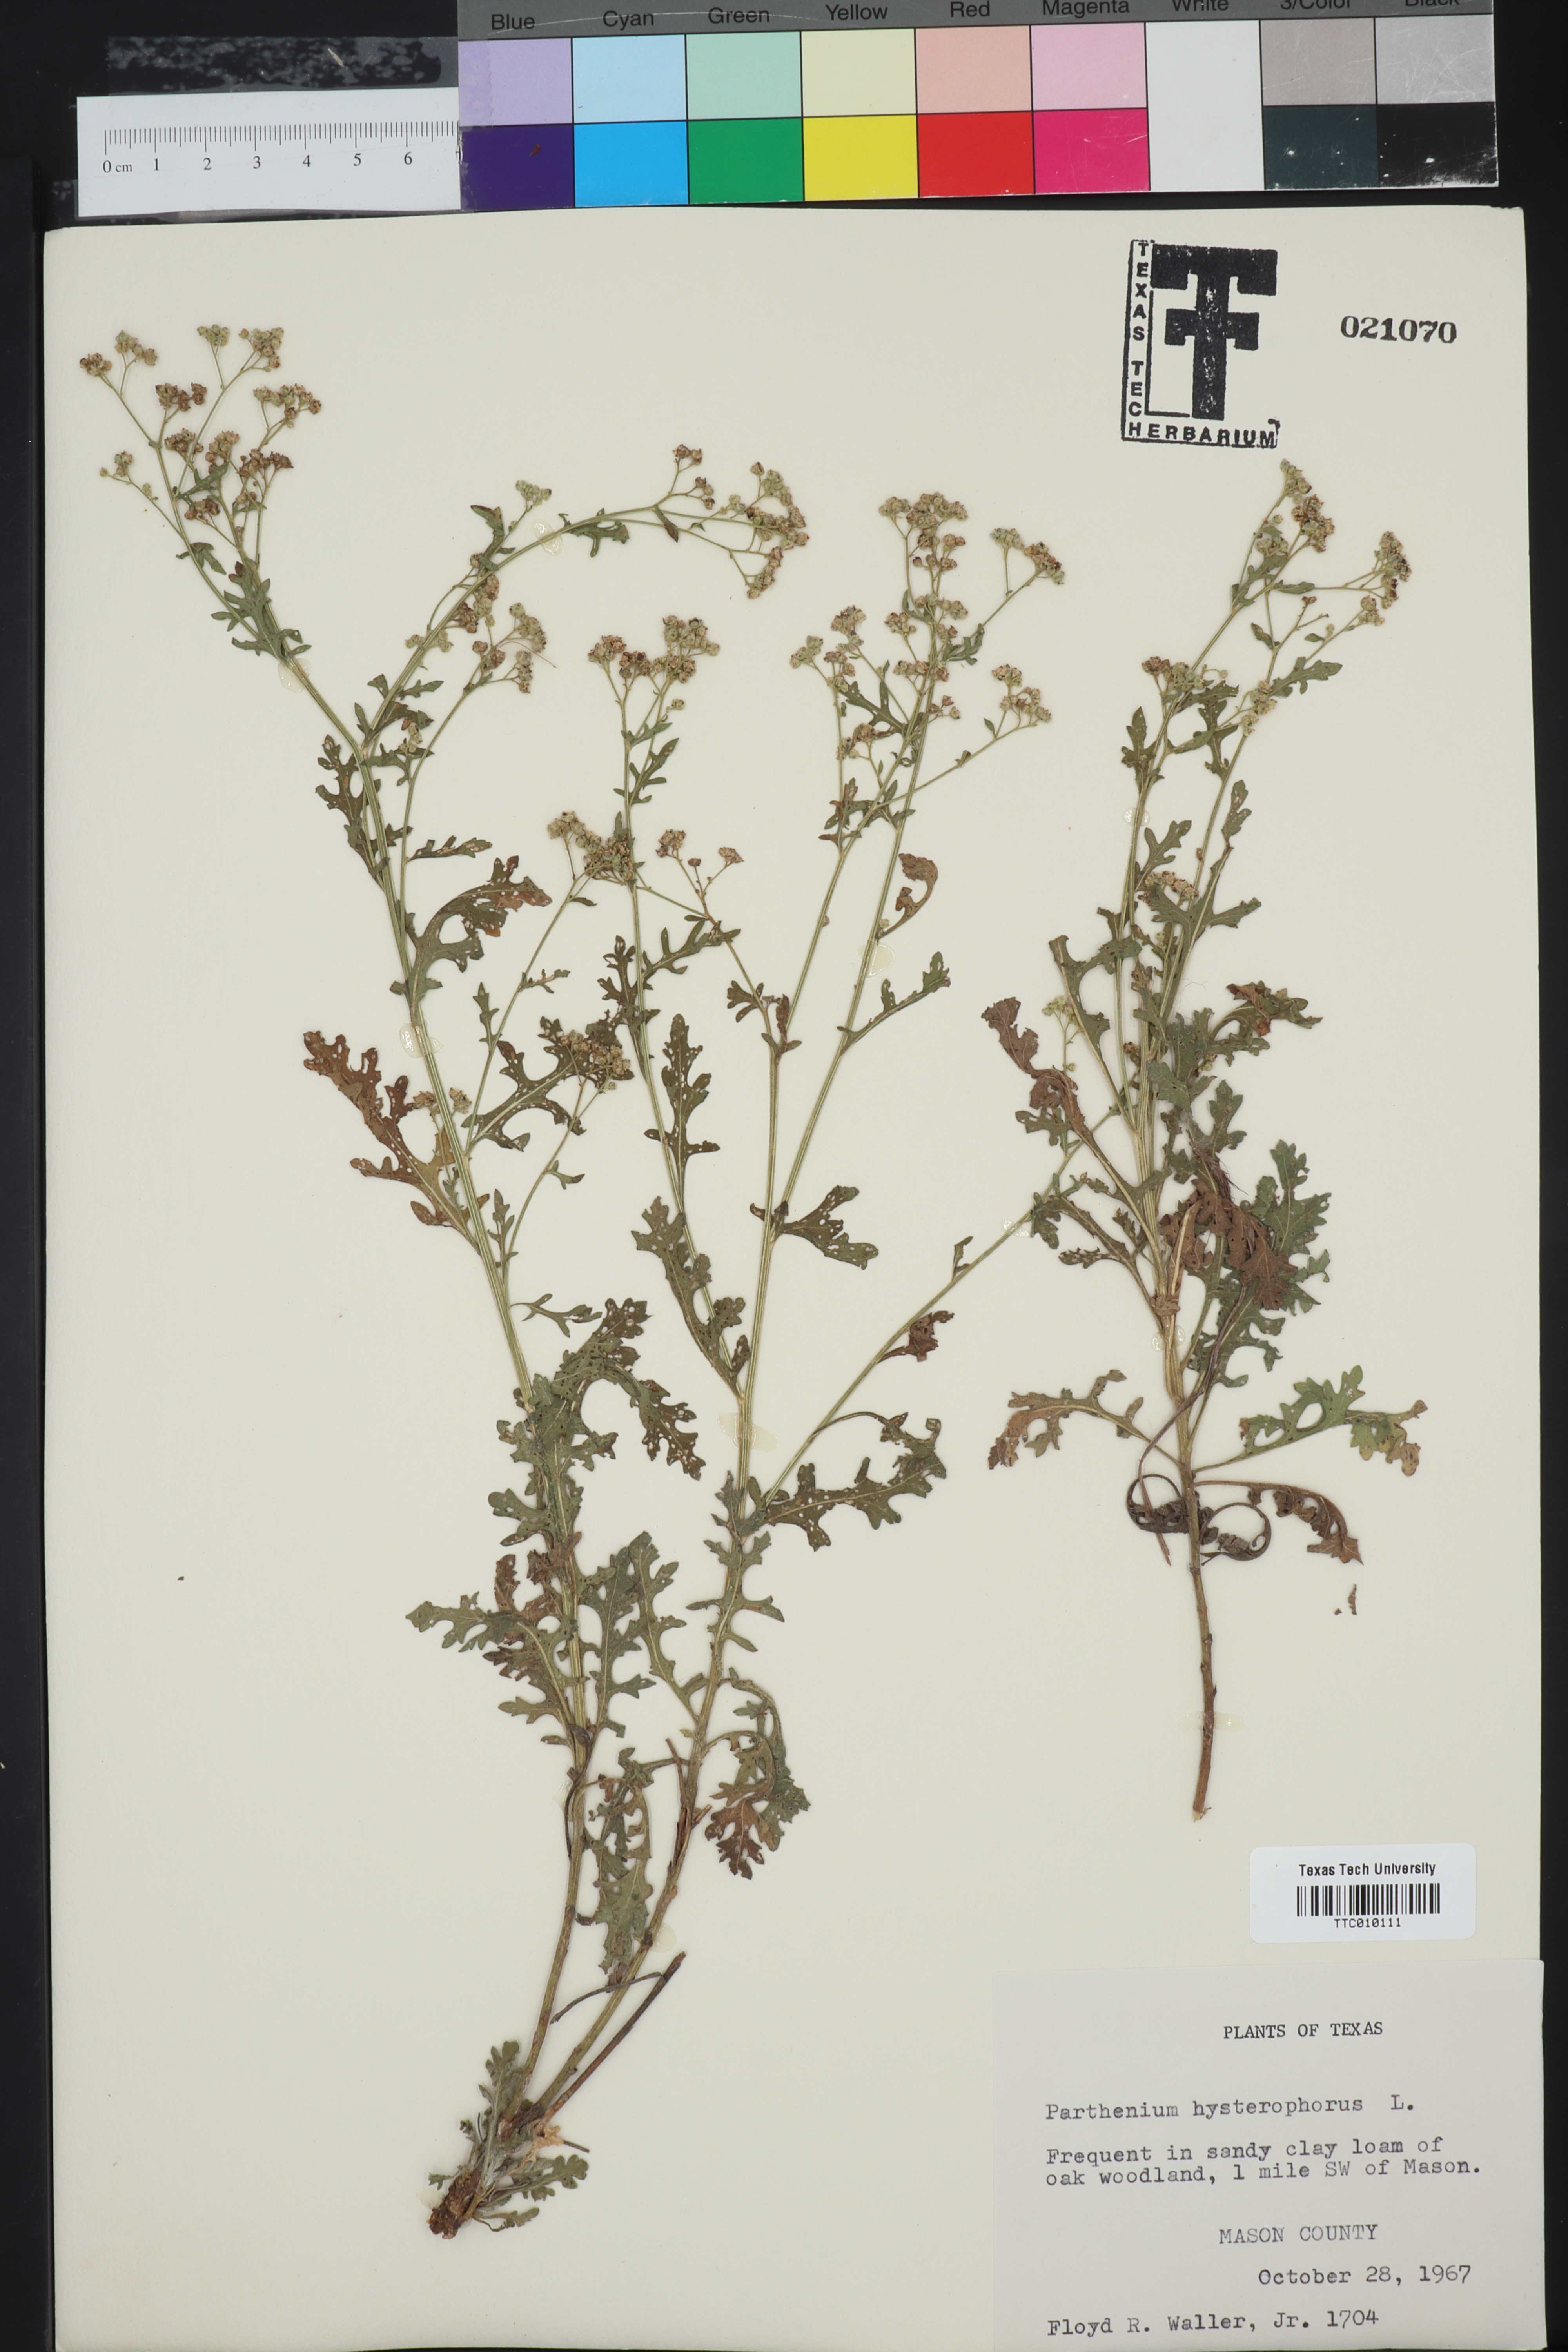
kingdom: Plantae
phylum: Tracheophyta
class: Magnoliopsida
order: Asterales
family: Asteraceae
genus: Parthenium
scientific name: Parthenium hysterophorus
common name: Santa maria feverfew
